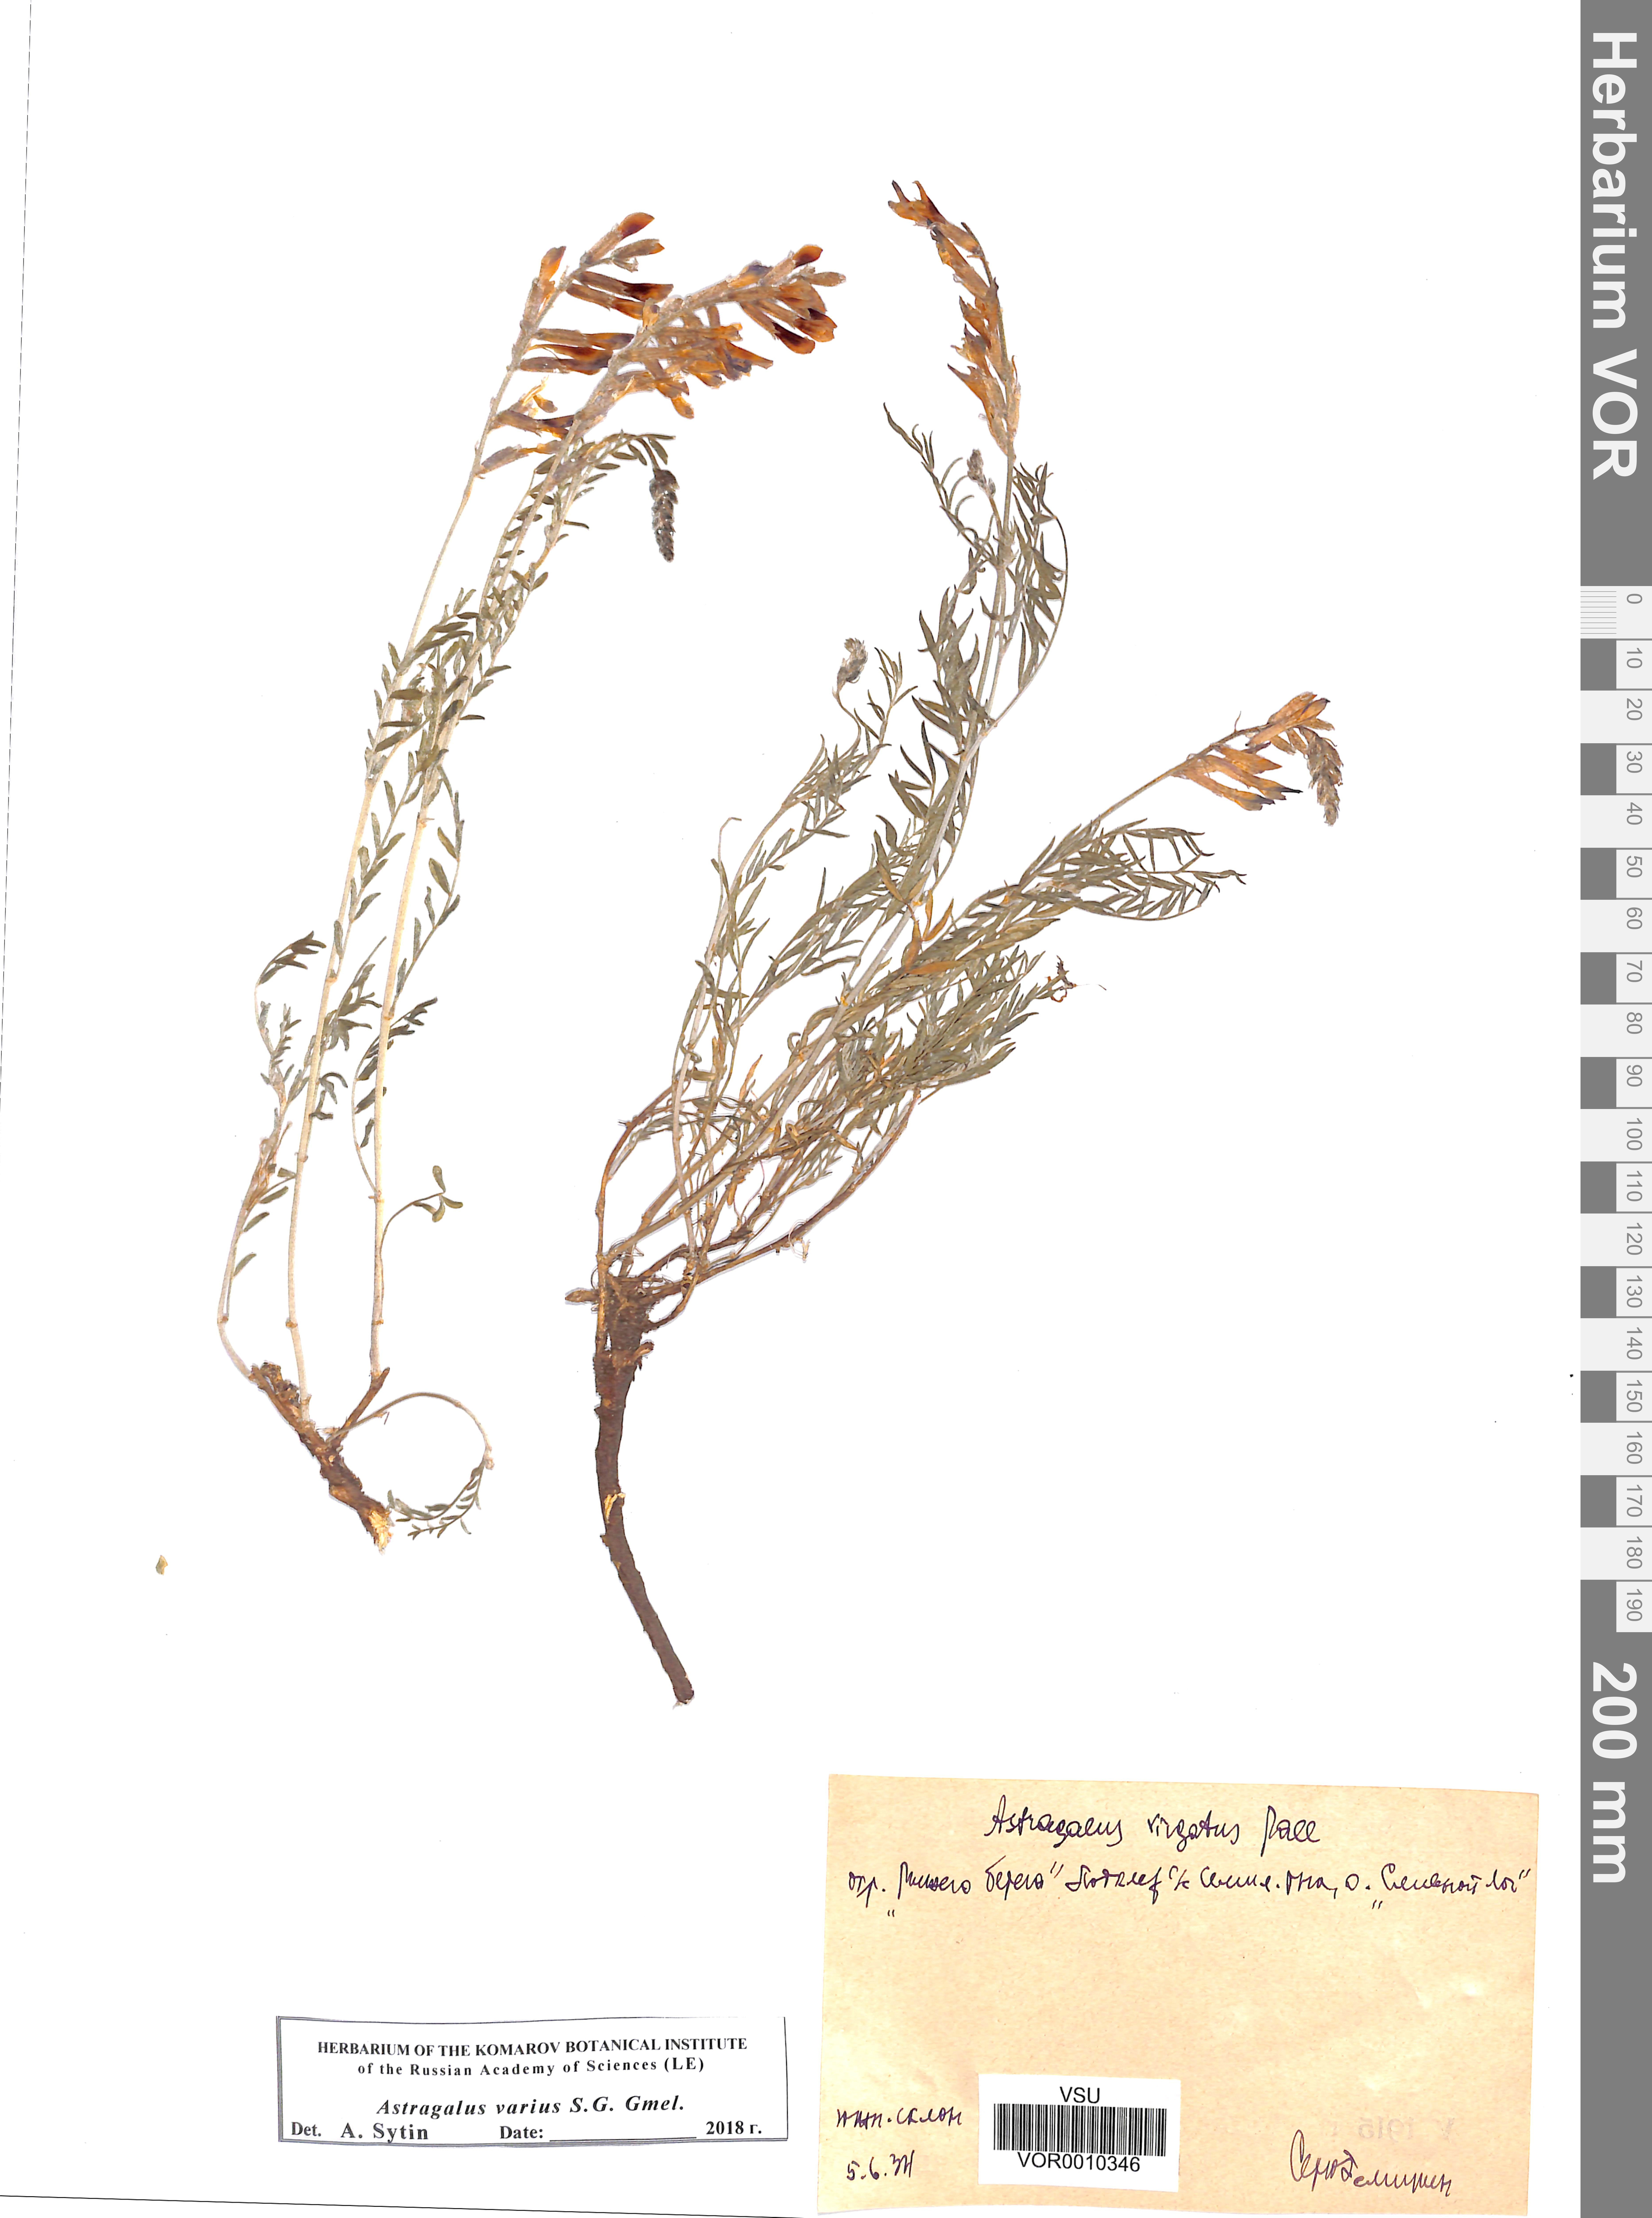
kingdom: Plantae
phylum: Tracheophyta
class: Magnoliopsida
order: Fabales
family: Fabaceae
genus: Astragalus
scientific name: Astragalus varius
